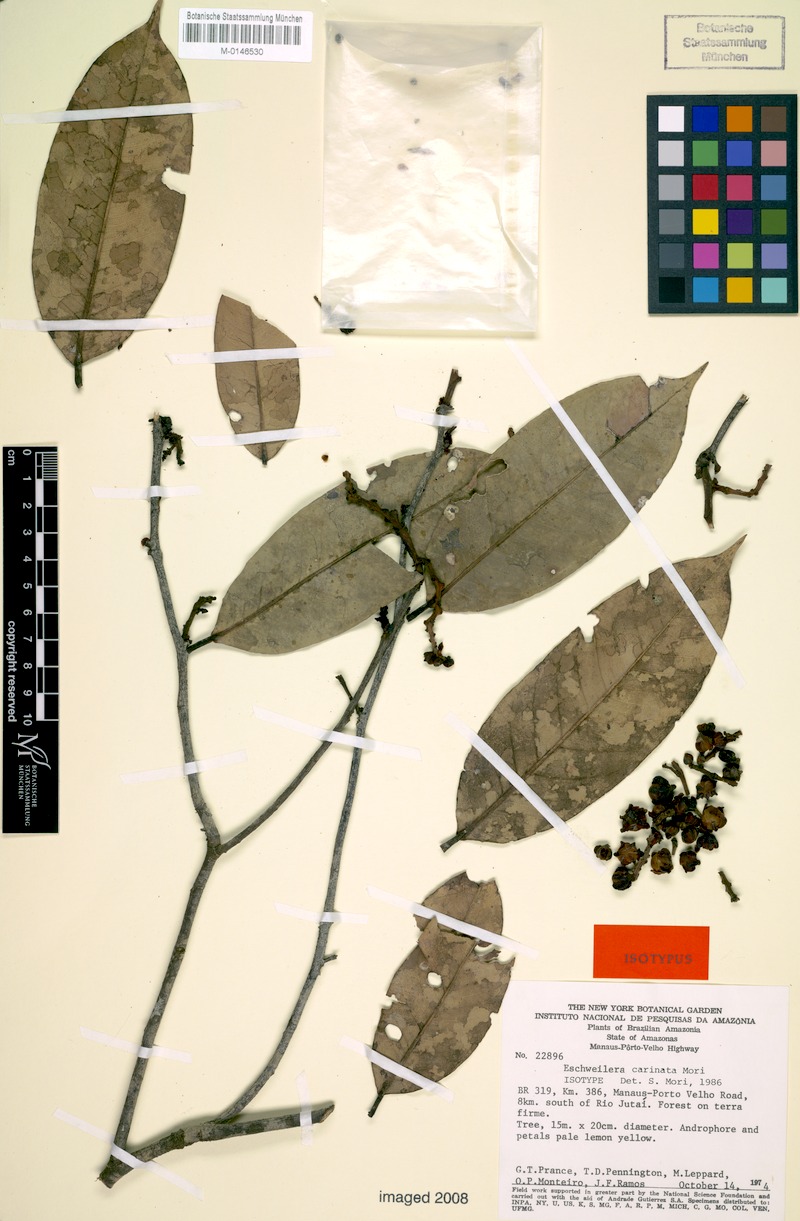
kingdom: Plantae
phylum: Tracheophyta
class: Magnoliopsida
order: Ericales
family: Lecythidaceae
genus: Eschweilera
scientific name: Eschweilera carinata
